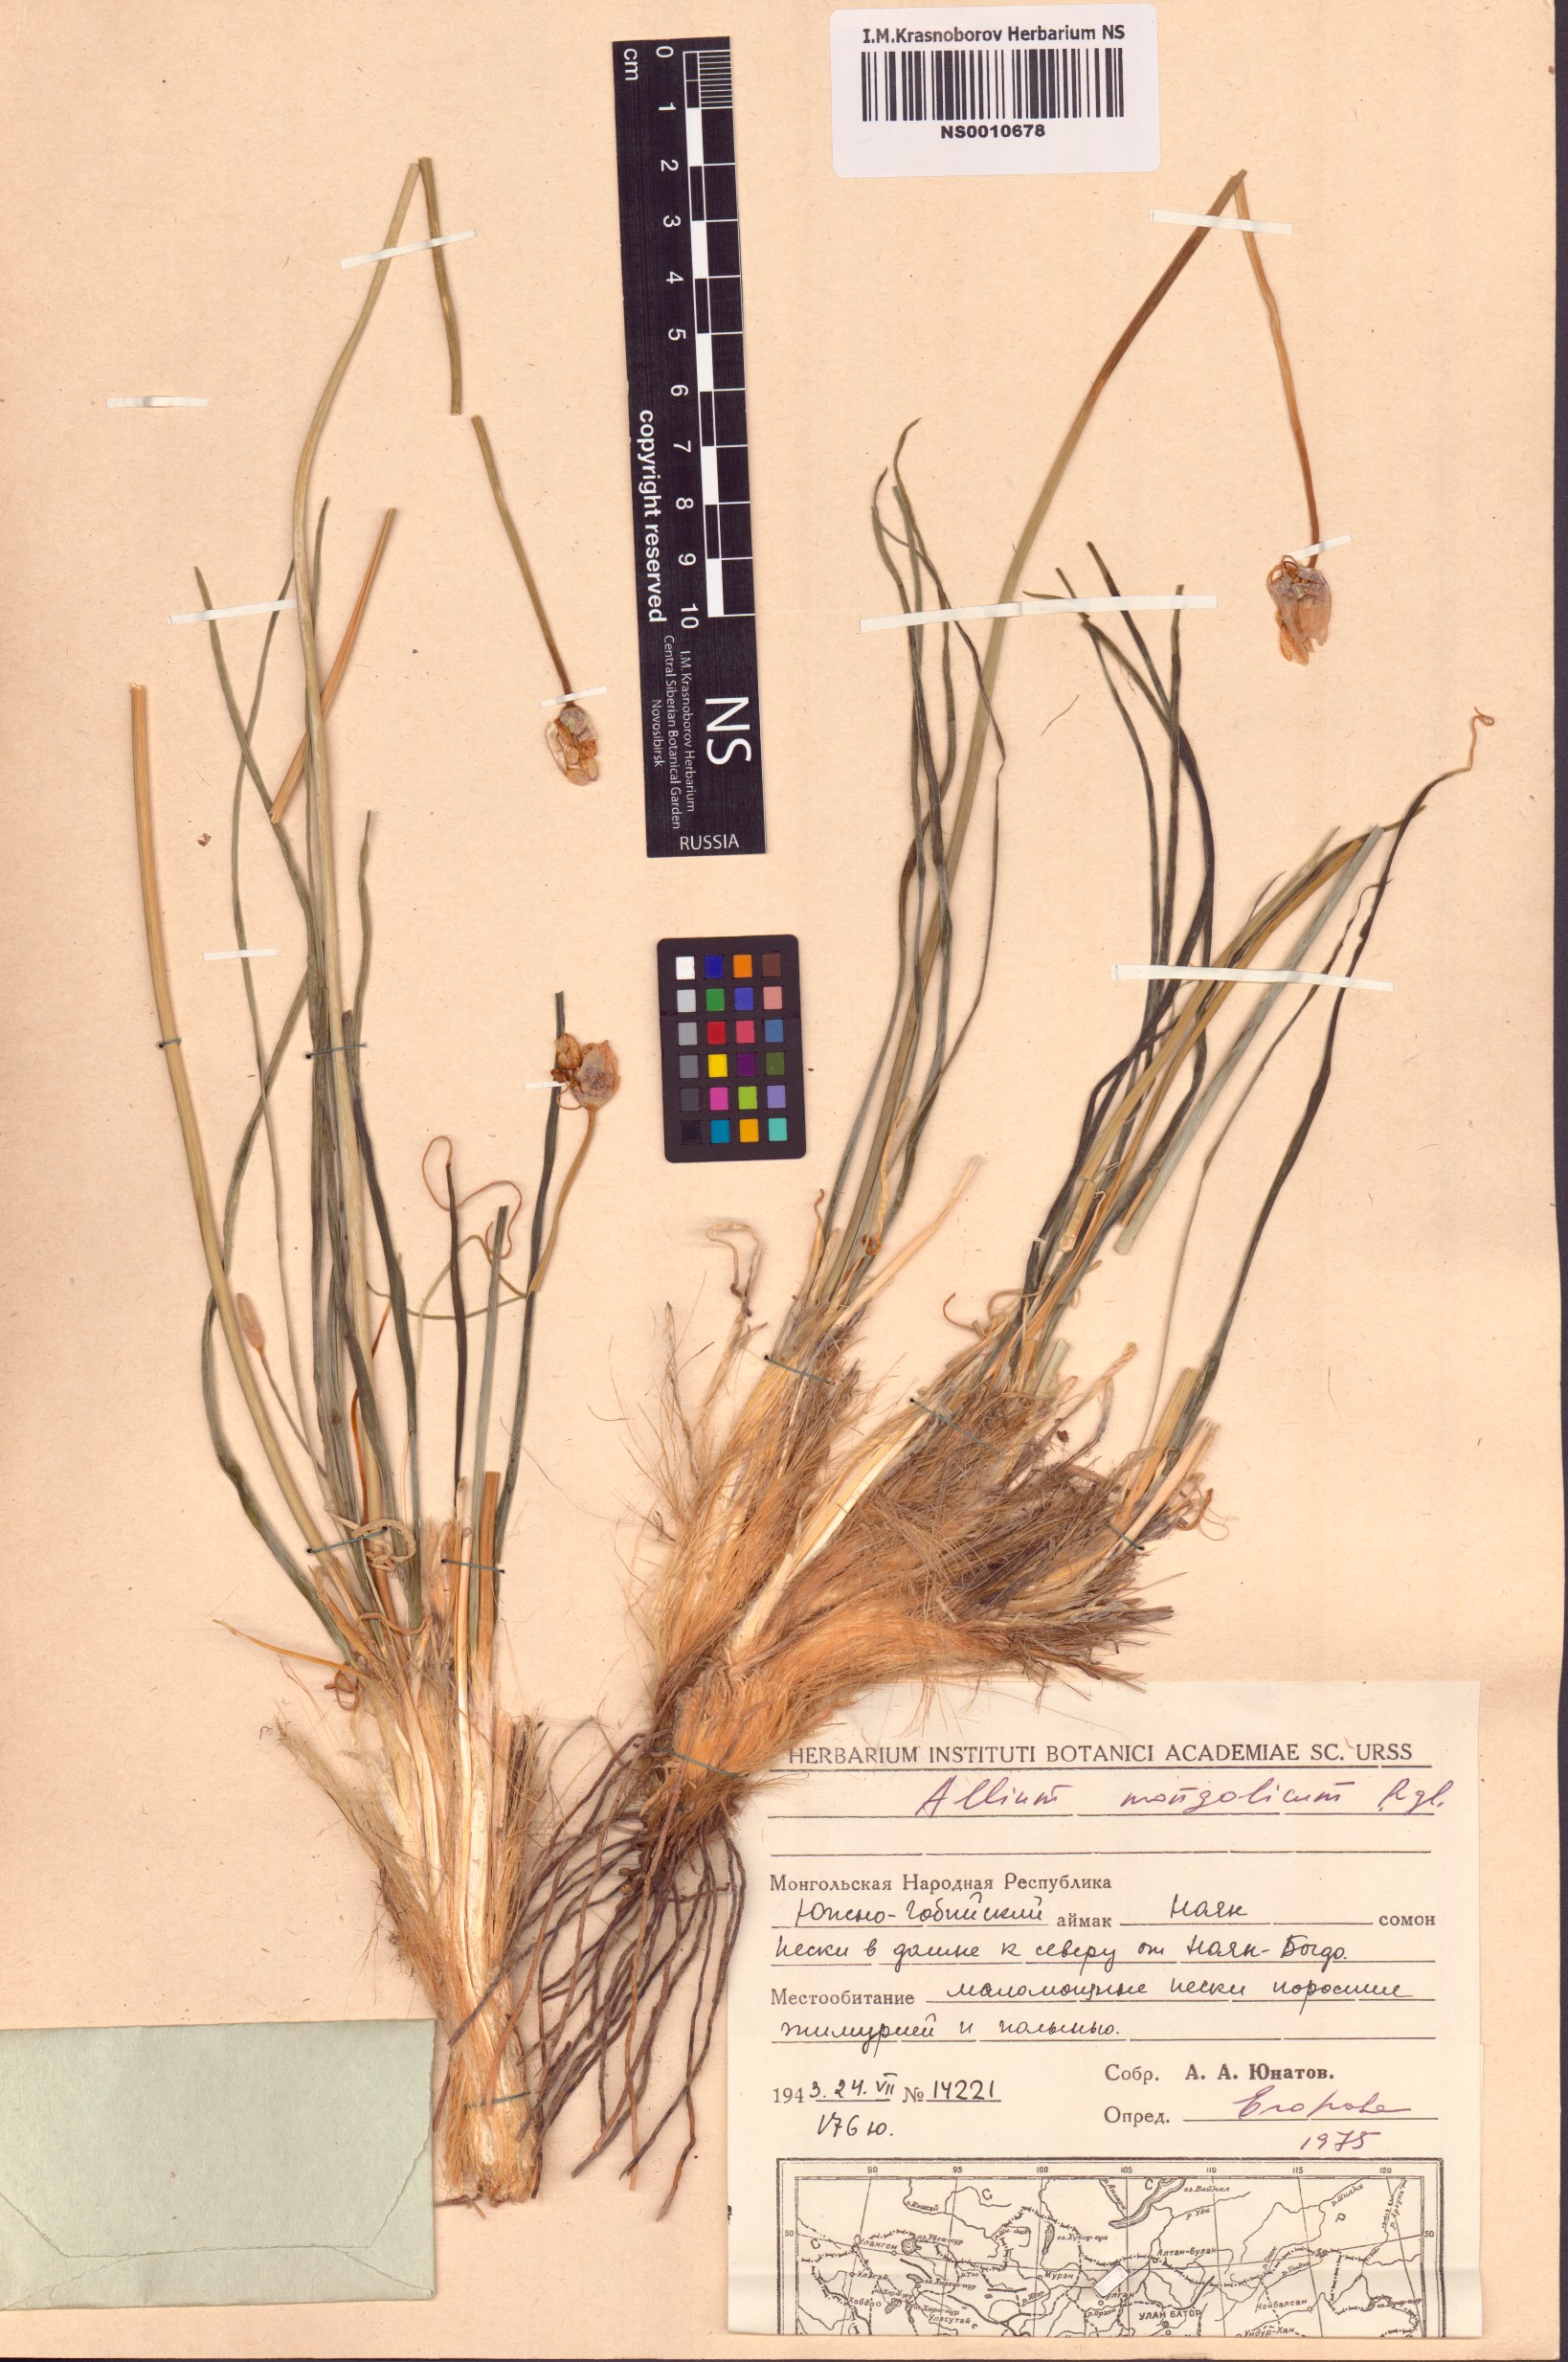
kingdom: Plantae
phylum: Tracheophyta
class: Liliopsida
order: Asparagales
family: Amaryllidaceae
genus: Allium
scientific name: Allium mongolicum
